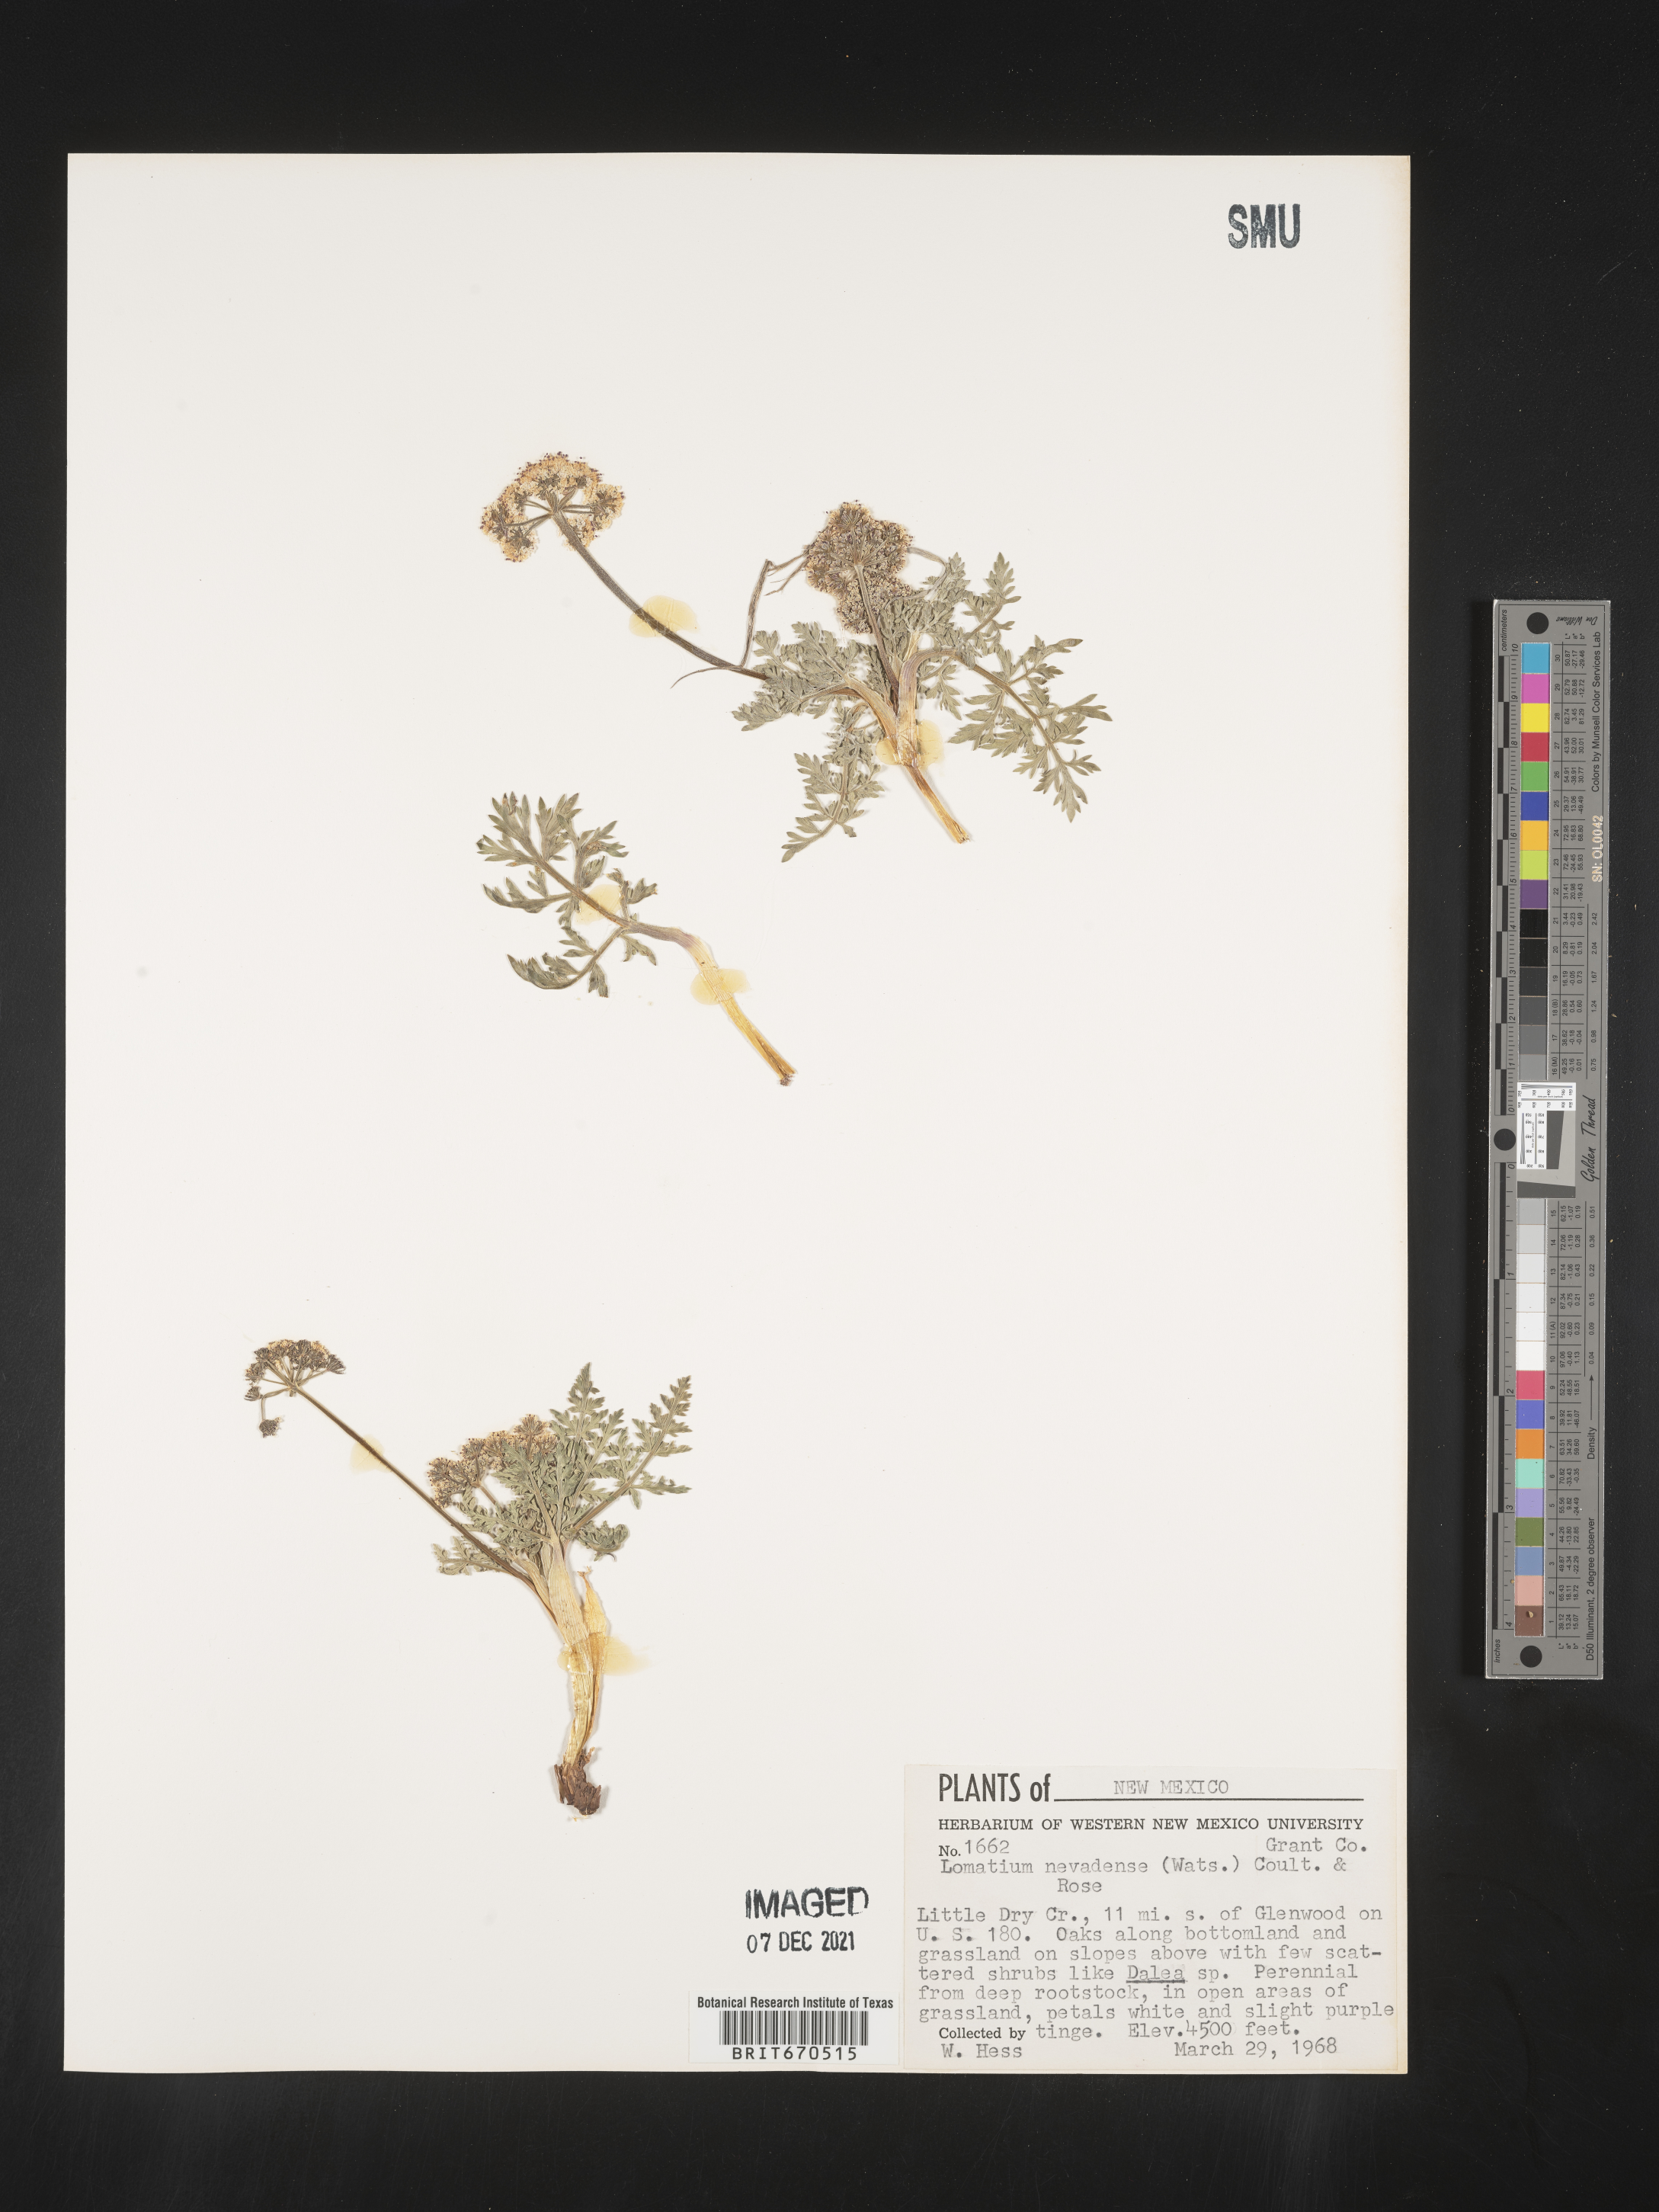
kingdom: Plantae
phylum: Tracheophyta
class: Magnoliopsida
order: Apiales
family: Apiaceae
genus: Lomatium
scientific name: Lomatium nevadense
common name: Nevada lomatium
